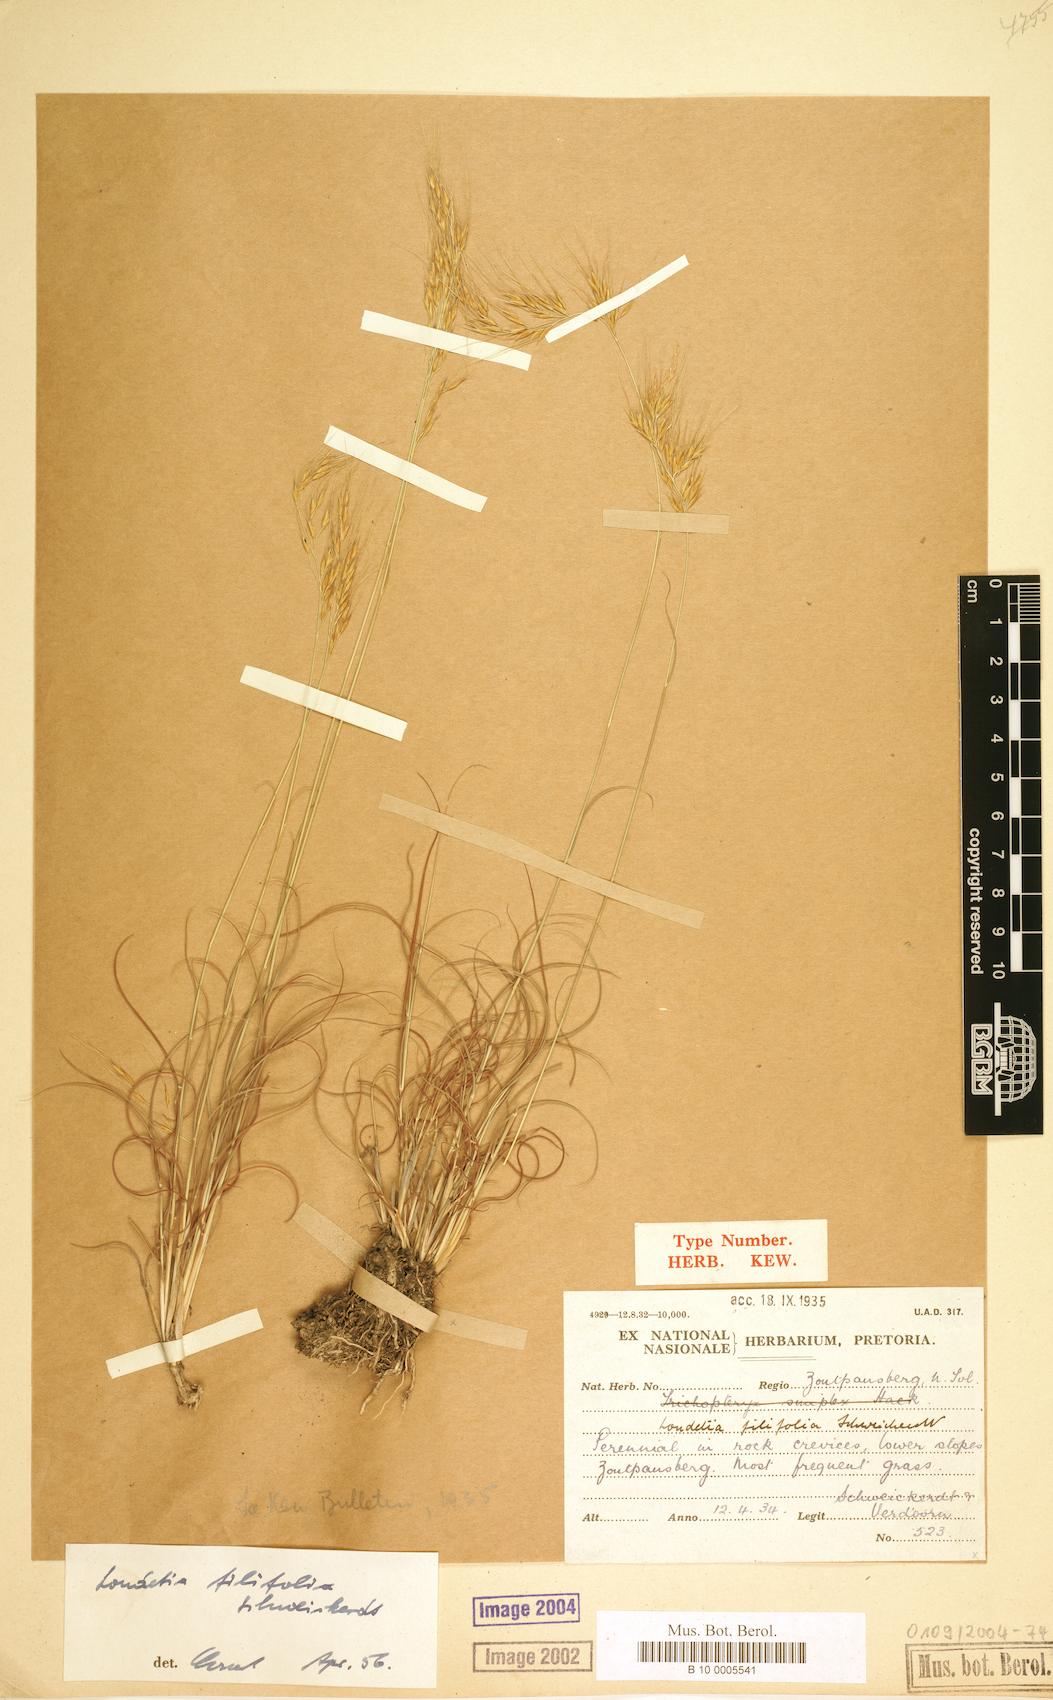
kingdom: Plantae
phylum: Tracheophyta
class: Liliopsida
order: Poales
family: Poaceae
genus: Loudetia
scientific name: Loudetia filifolia
